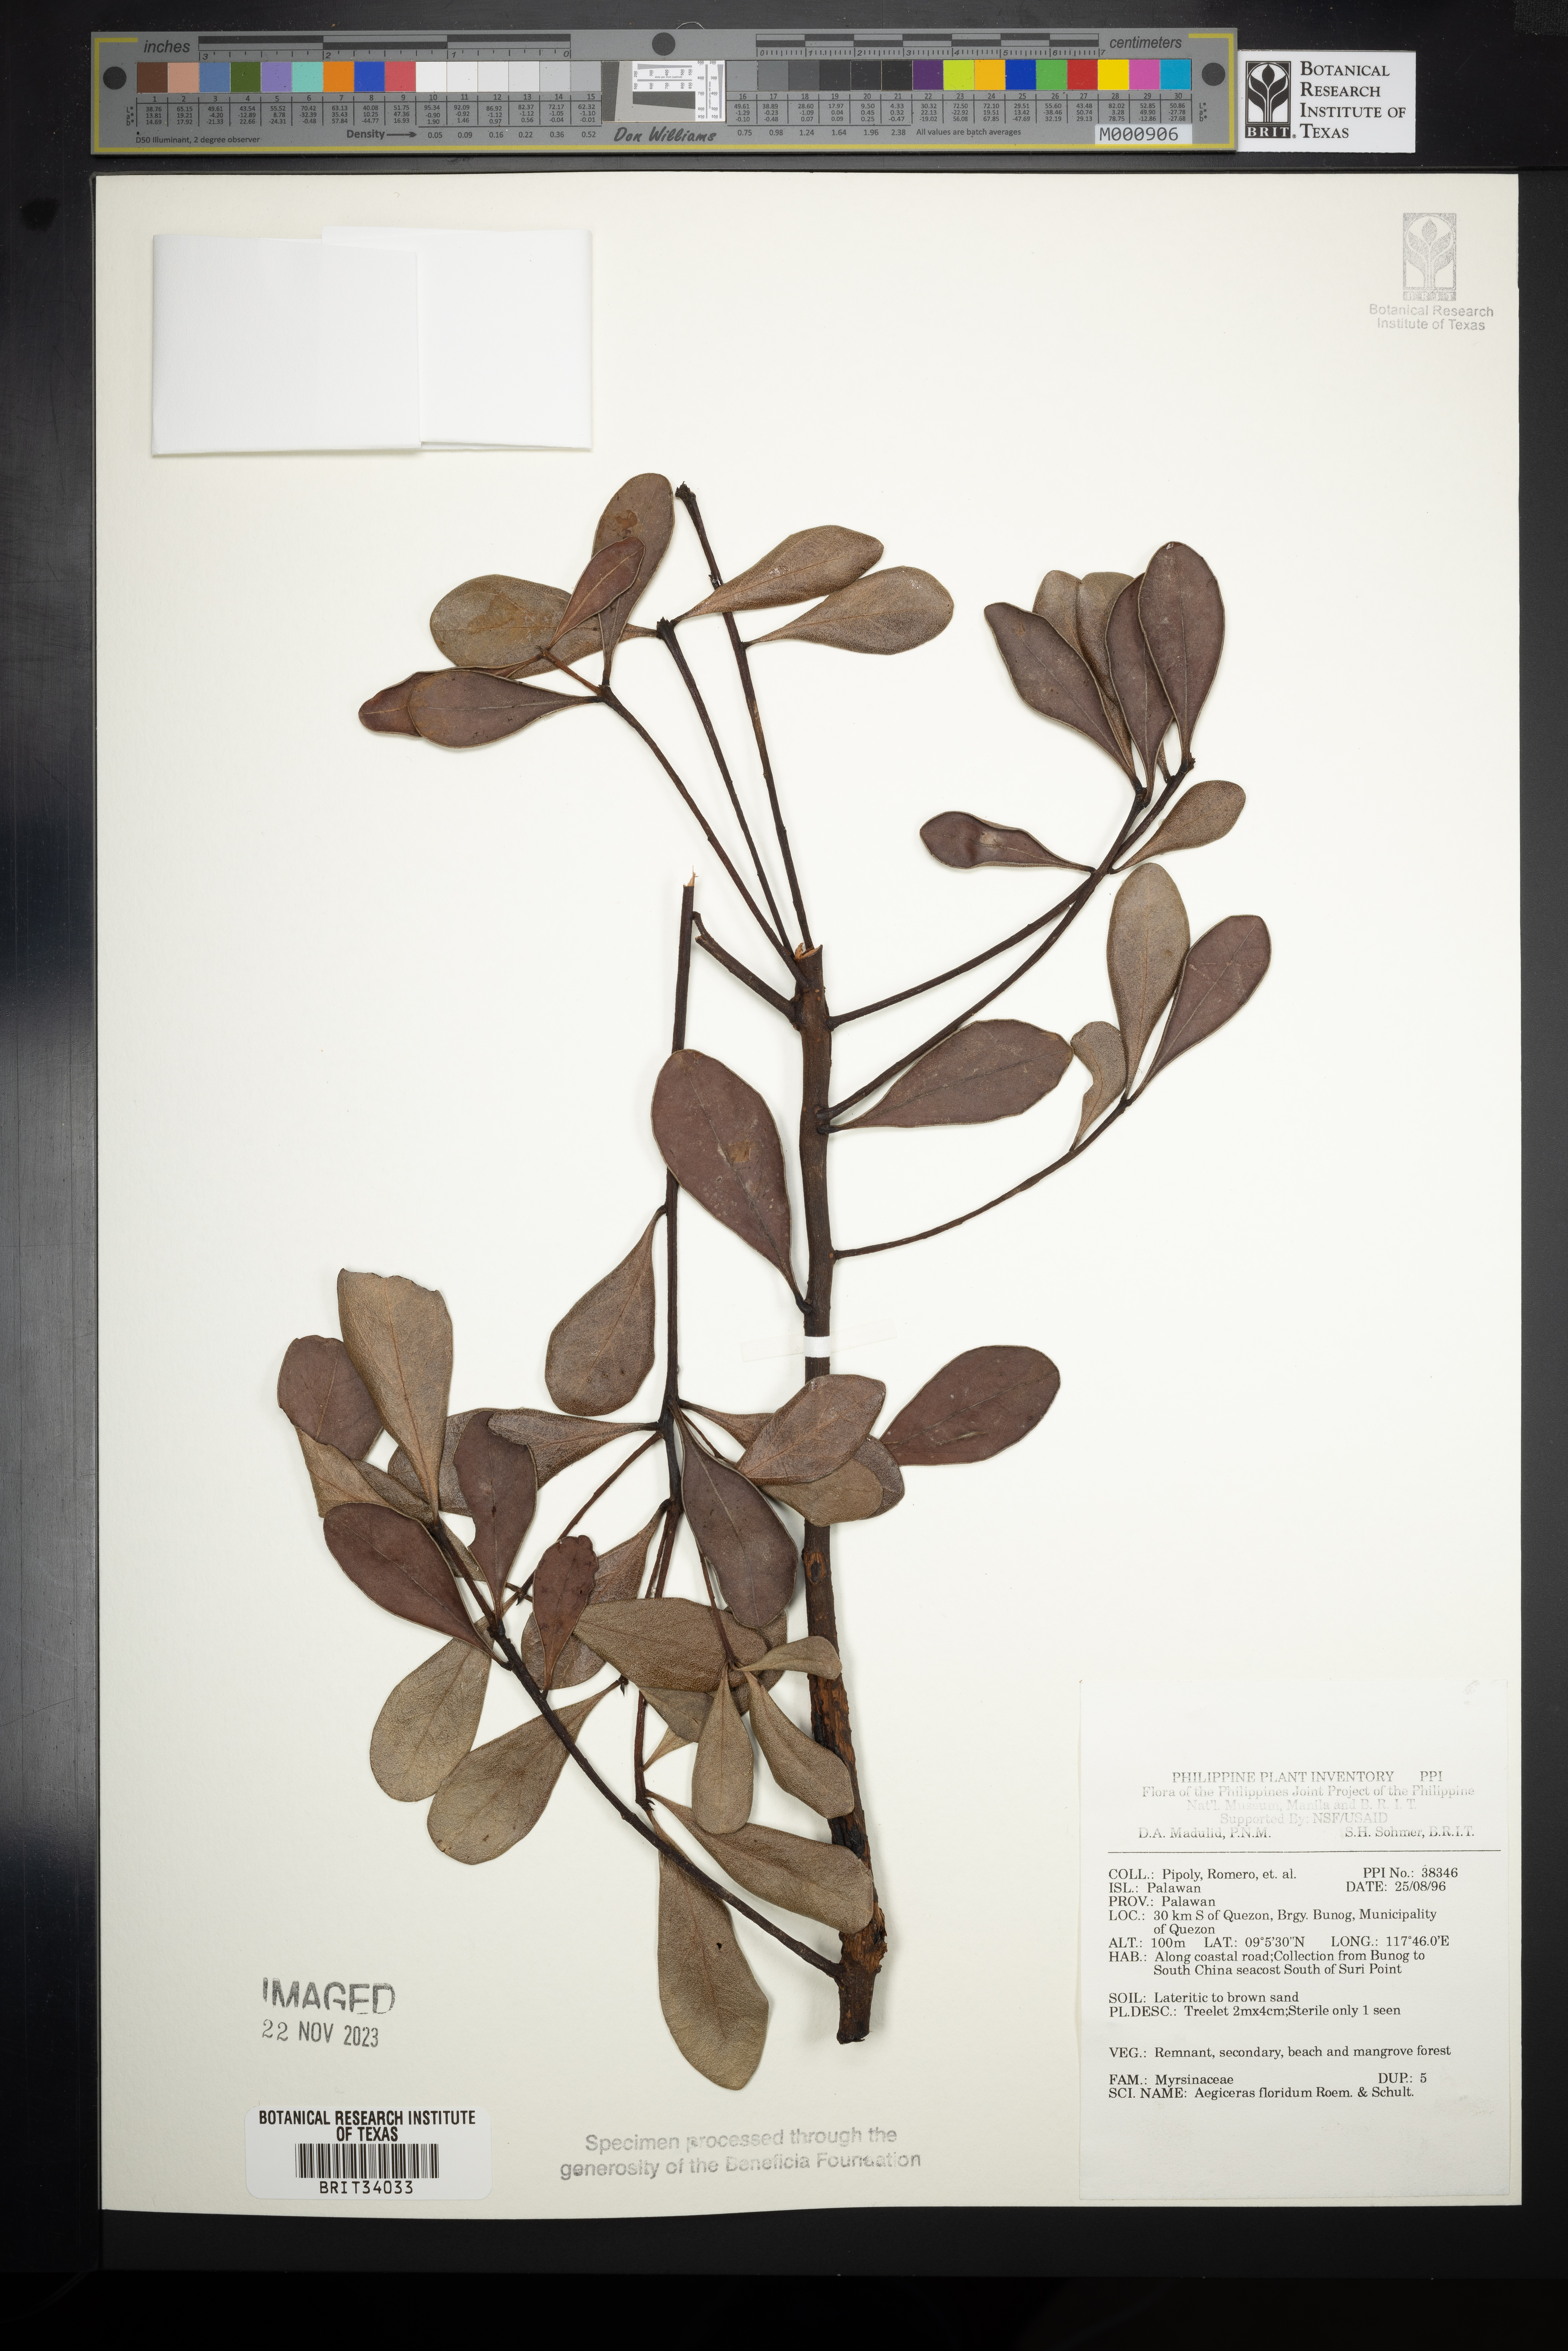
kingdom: Plantae
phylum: Tracheophyta
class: Magnoliopsida
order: Ericales
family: Primulaceae
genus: Aegiceras
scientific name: Aegiceras floridum
